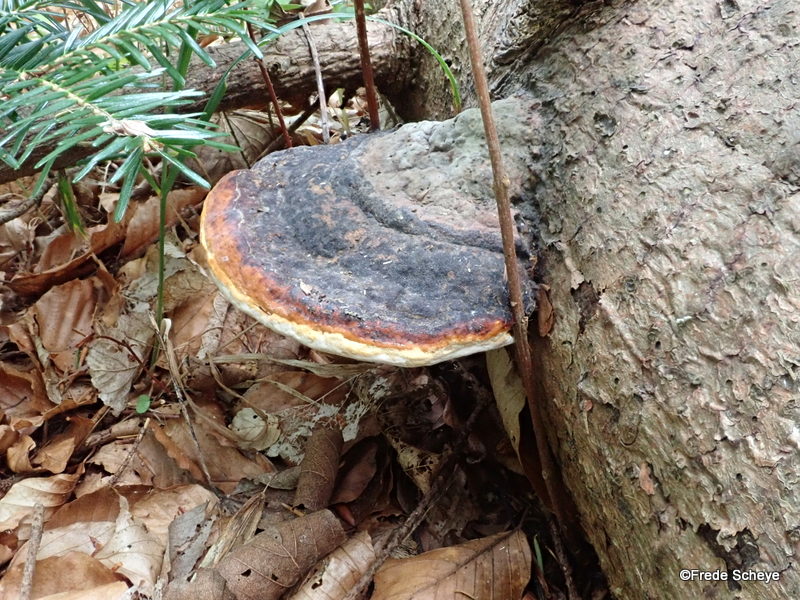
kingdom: Fungi
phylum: Basidiomycota
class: Agaricomycetes
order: Polyporales
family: Fomitopsidaceae
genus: Fomitopsis
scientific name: Fomitopsis pinicola
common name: randbæltet hovporesvamp
